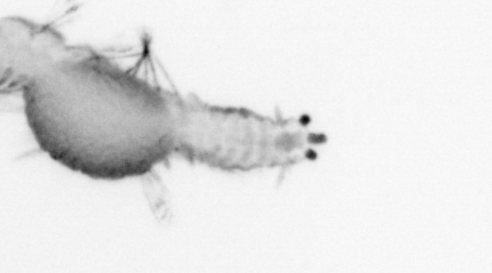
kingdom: Animalia
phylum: Annelida
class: Polychaeta
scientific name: Polychaeta
